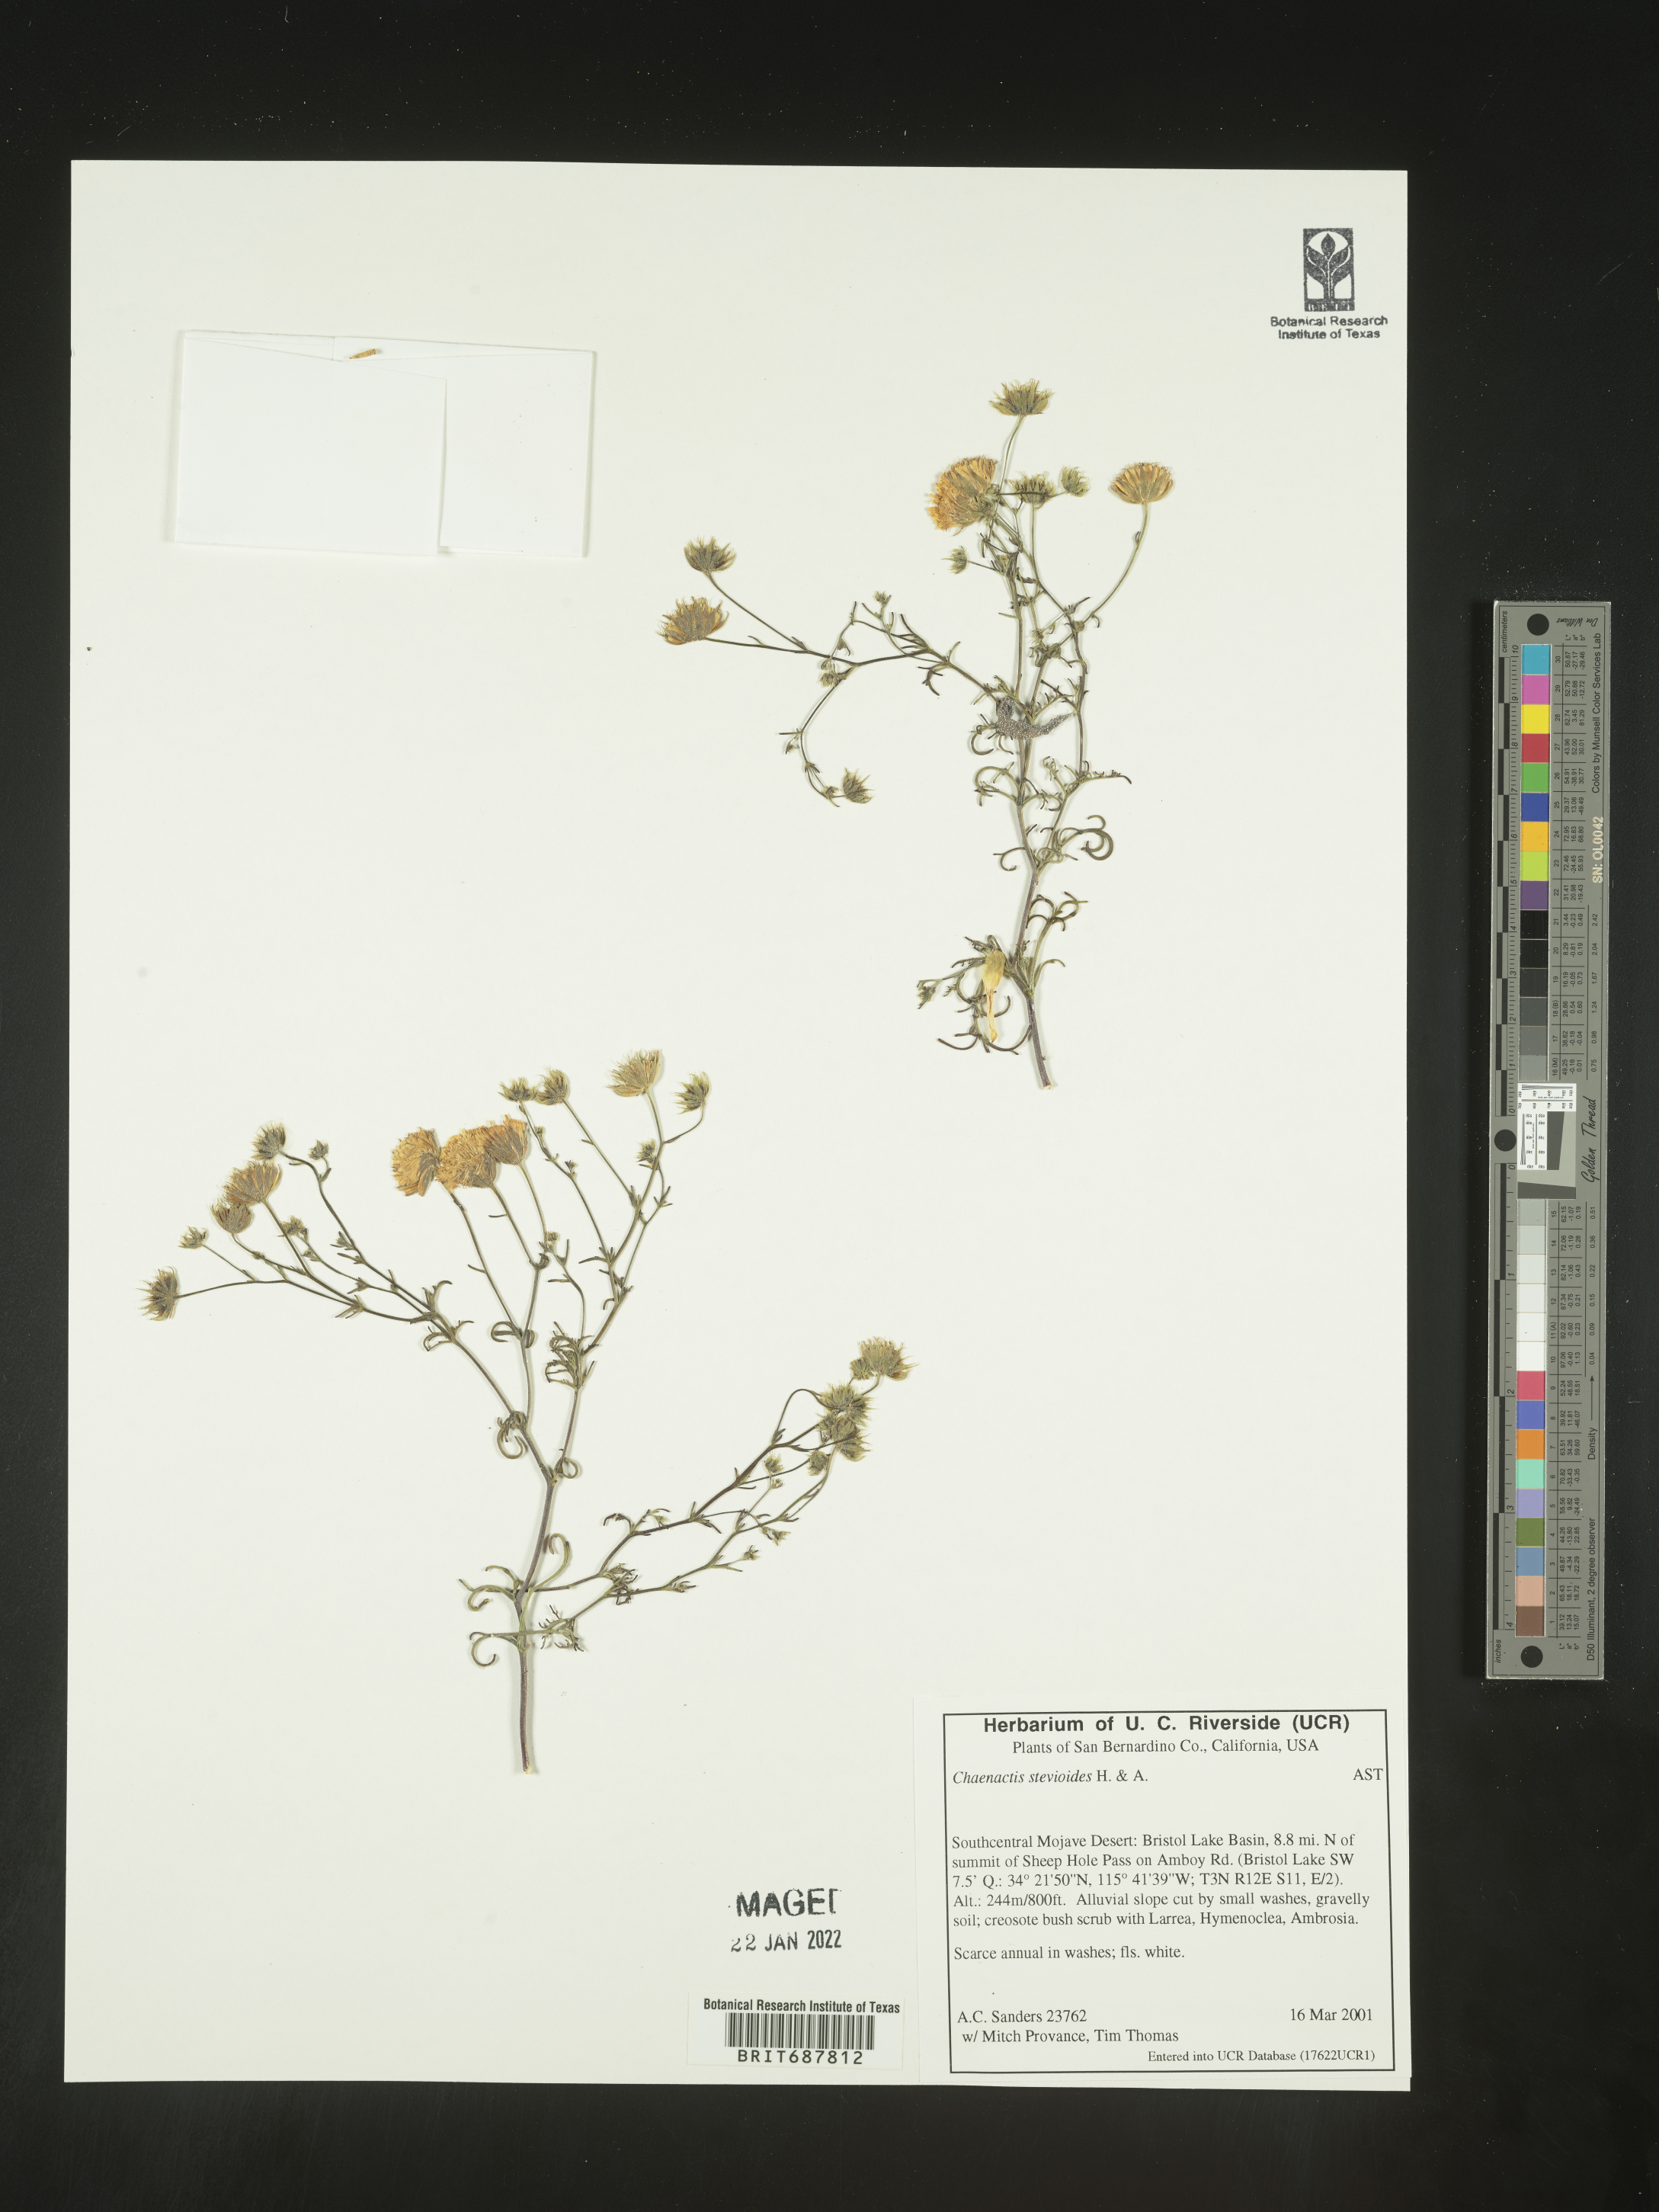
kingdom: Plantae
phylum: Tracheophyta
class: Magnoliopsida
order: Asterales
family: Asteraceae
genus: Chaenactis
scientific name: Chaenactis stevioides
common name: Desert pincushion
